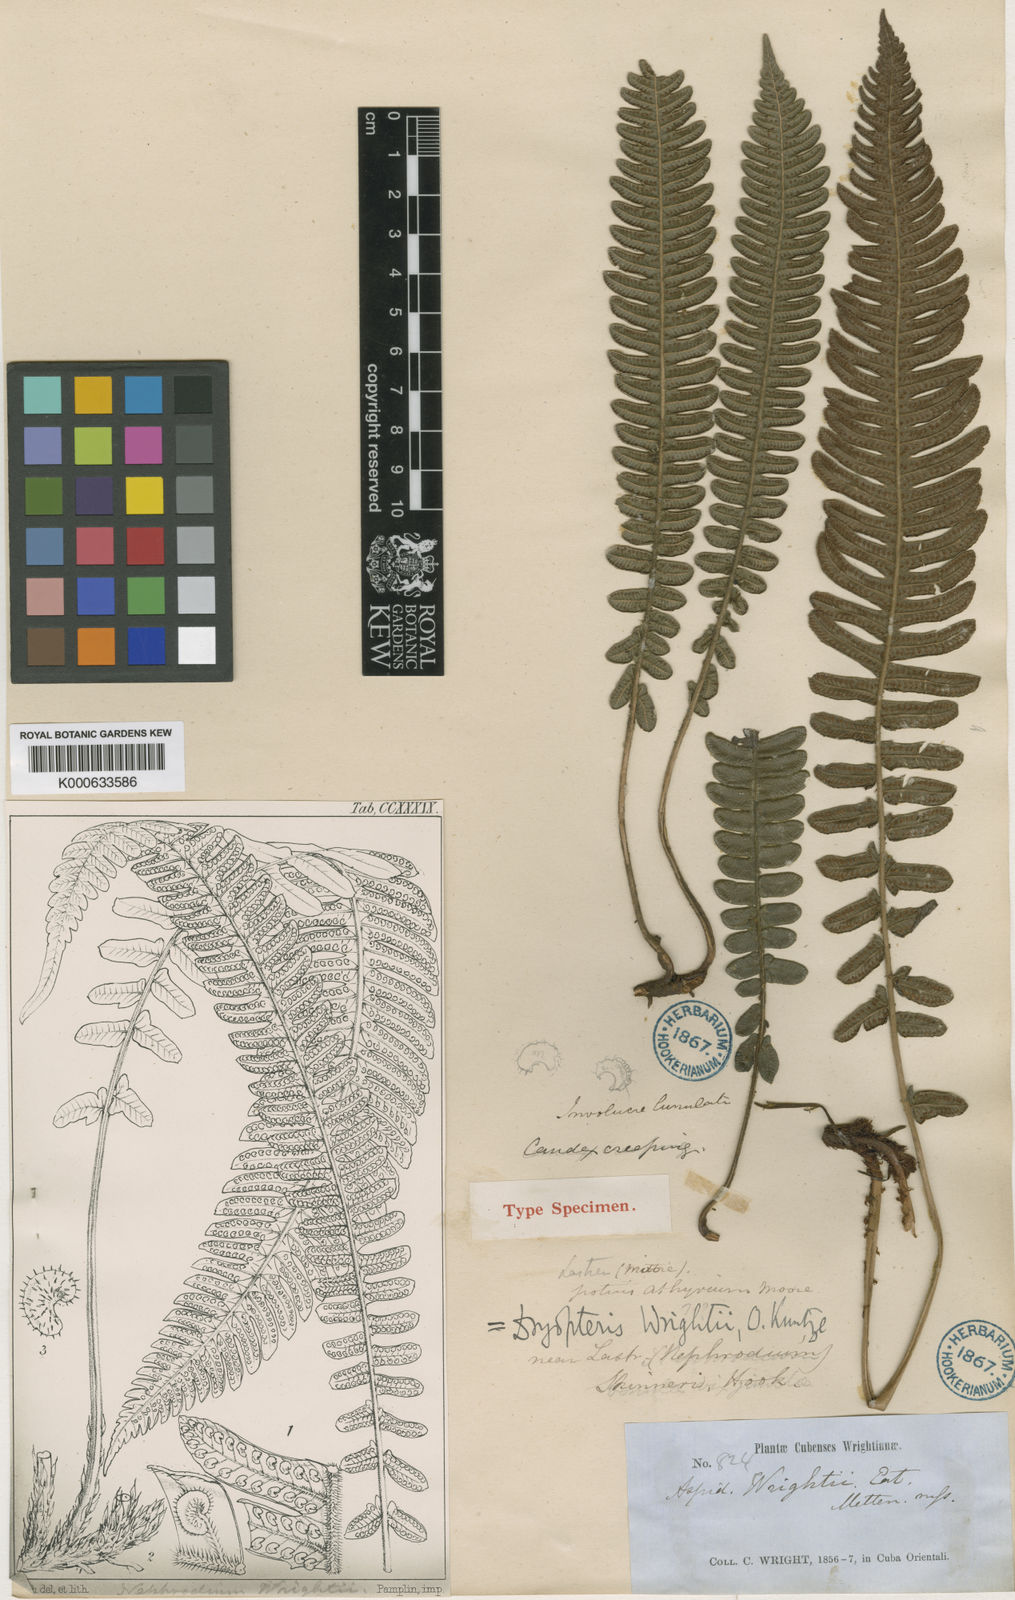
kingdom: Plantae
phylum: Tracheophyta
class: Polypodiopsida
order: Polypodiales
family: Thelypteridaceae
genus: Steiropteris
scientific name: Steiropteris wrightii
